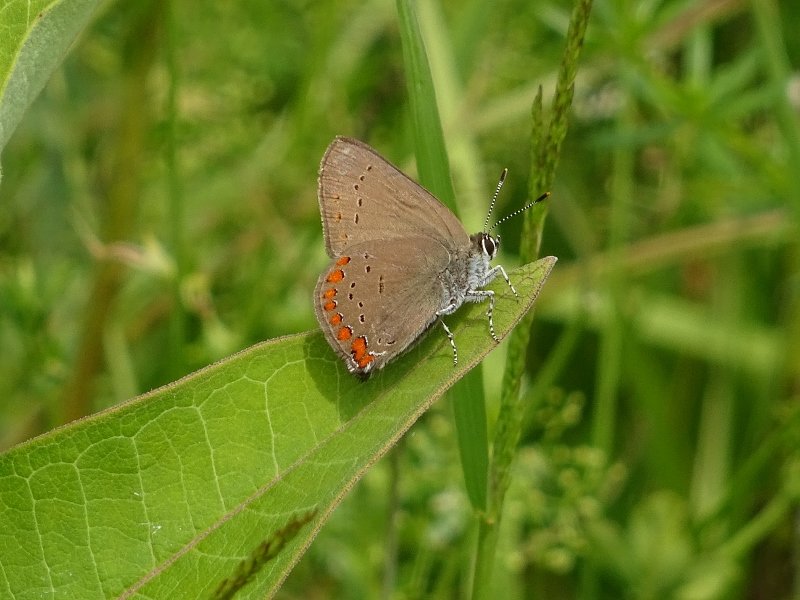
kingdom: Animalia
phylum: Arthropoda
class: Insecta
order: Lepidoptera
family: Lycaenidae
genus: Harkenclenus
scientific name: Harkenclenus titus
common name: Coral Hairstreak
